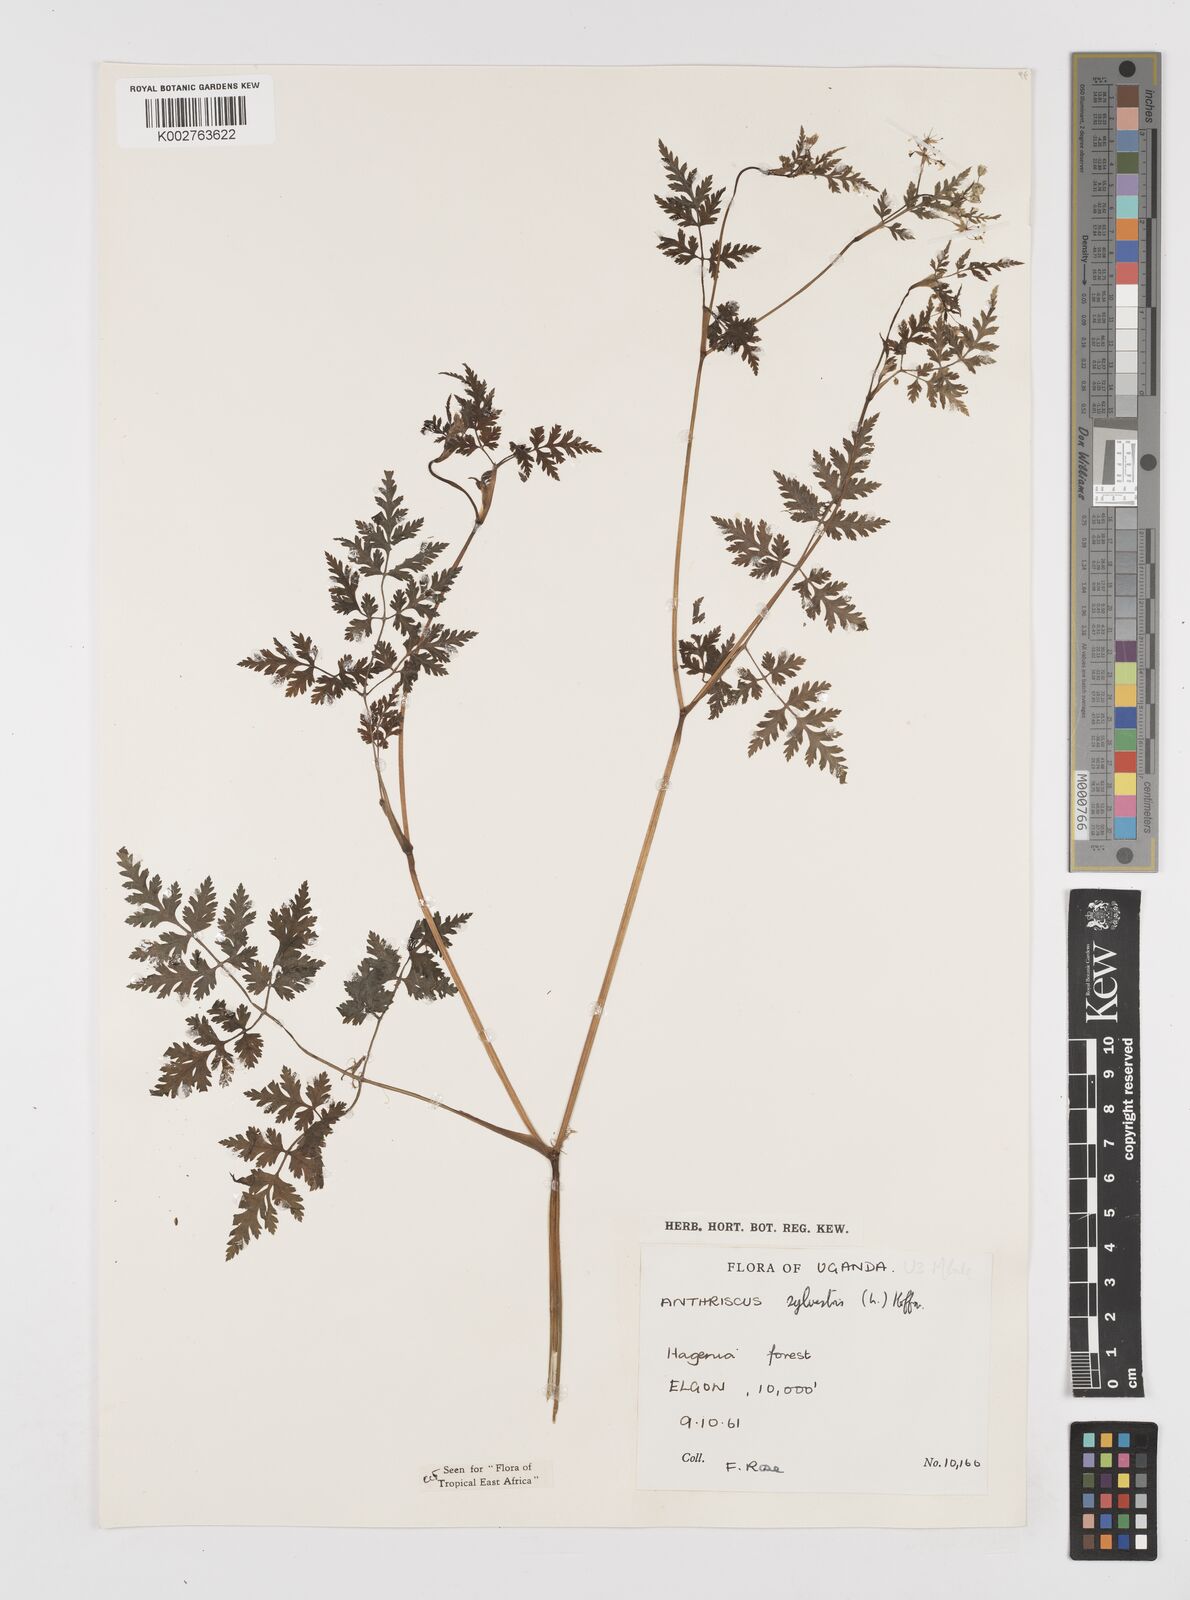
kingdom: Plantae
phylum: Tracheophyta
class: Magnoliopsida
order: Apiales
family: Apiaceae
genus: Anthriscus
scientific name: Anthriscus sylvestris
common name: Cow parsley
